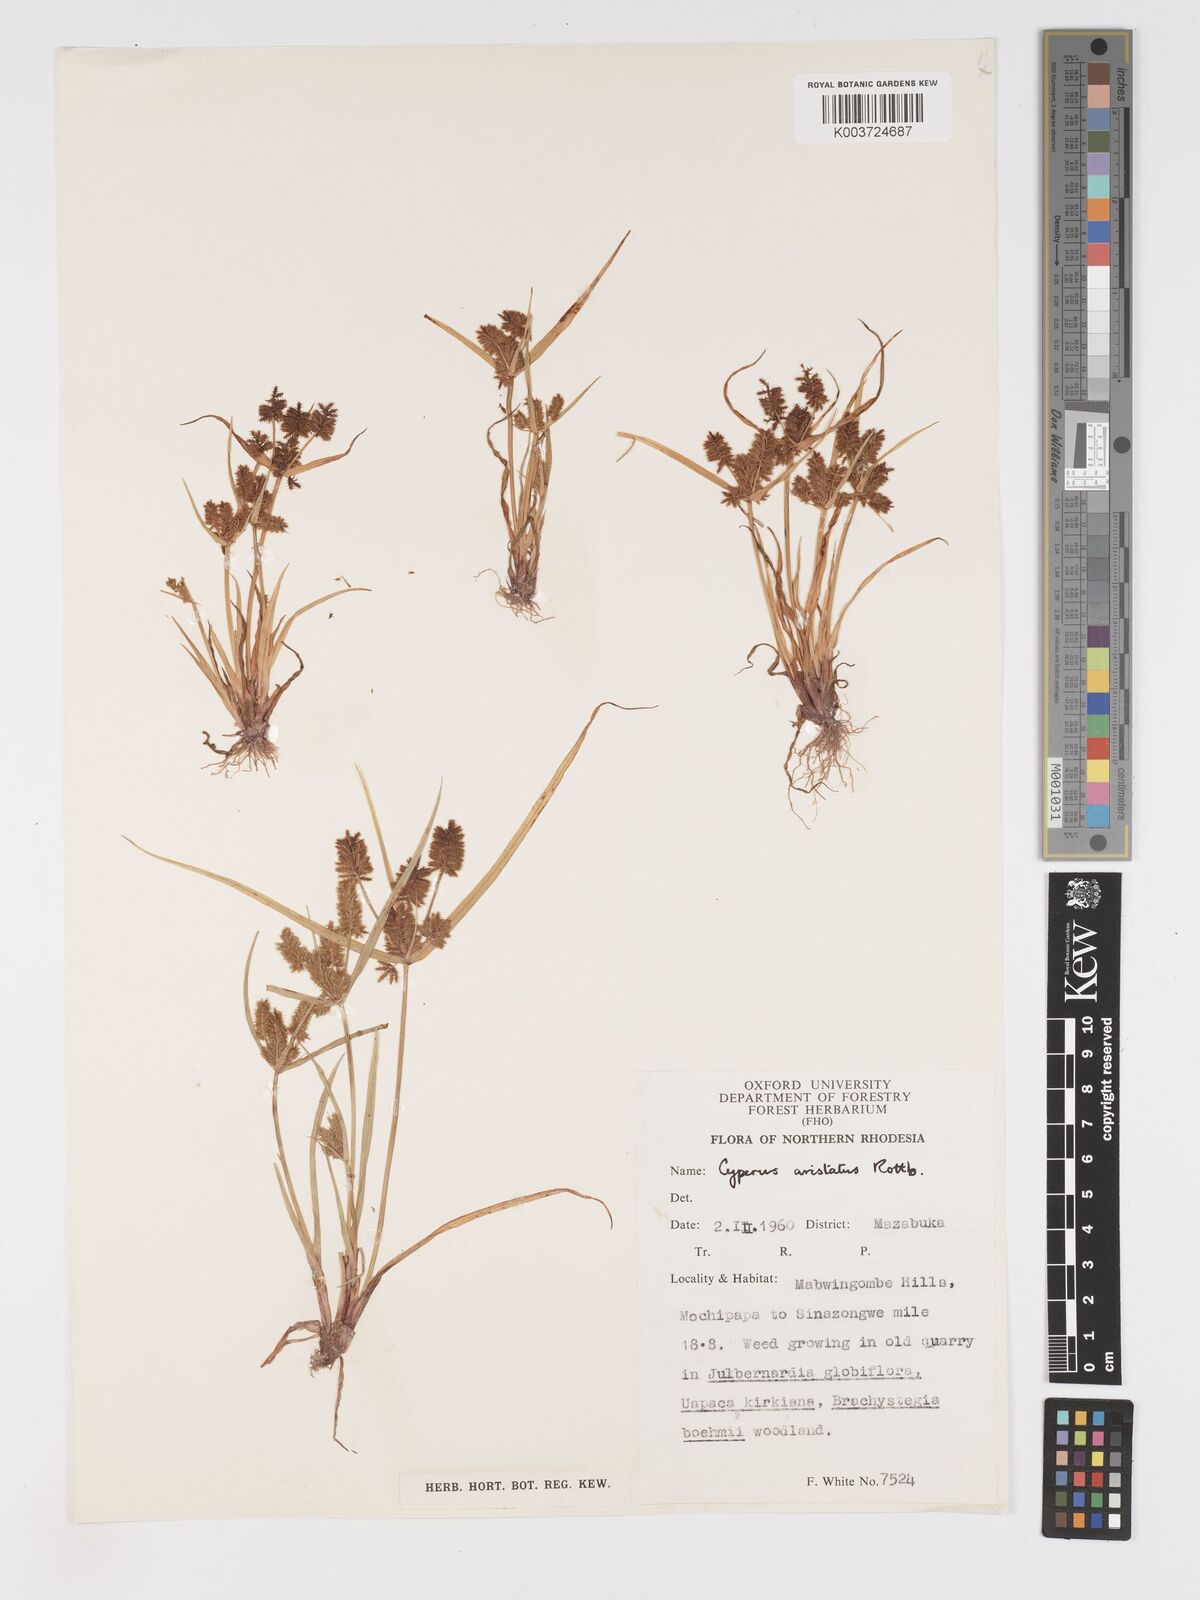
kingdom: Plantae
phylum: Tracheophyta
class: Liliopsida
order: Poales
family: Cyperaceae
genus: Cyperus
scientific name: Cyperus squarrosus
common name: Awned cyperus
